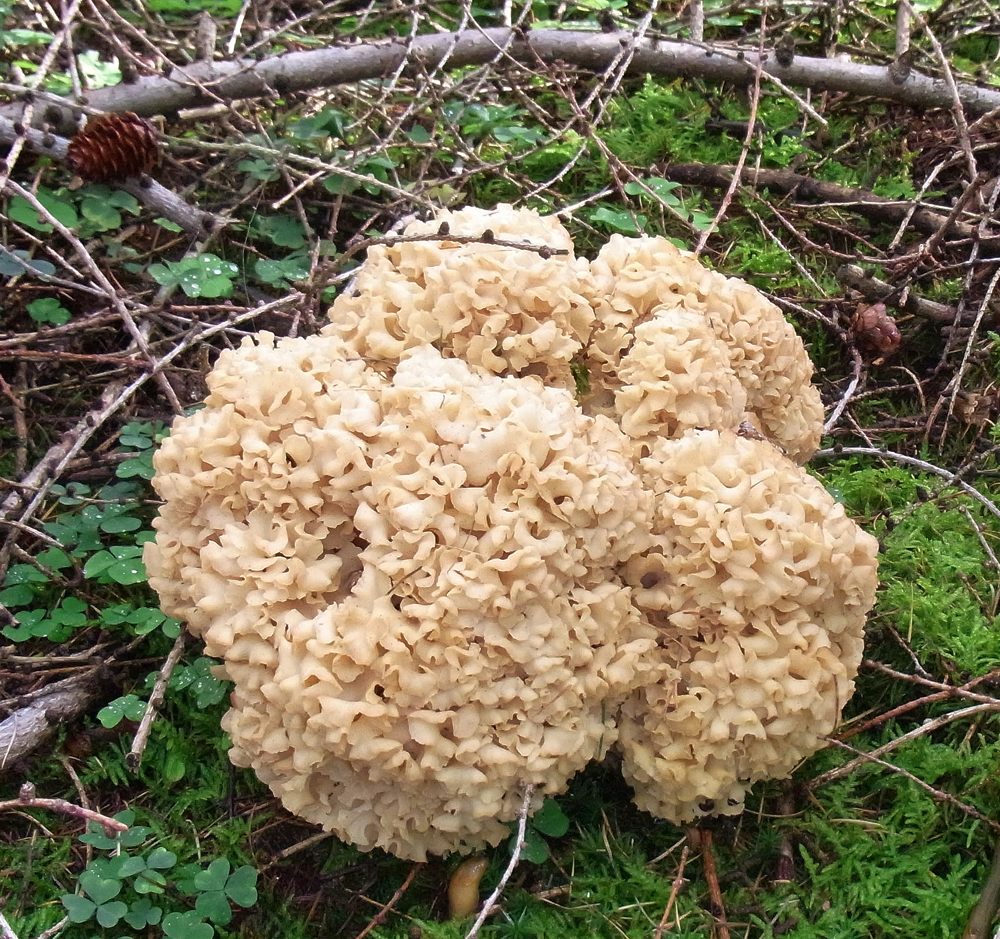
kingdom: Fungi
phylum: Basidiomycota
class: Agaricomycetes
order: Polyporales
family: Sparassidaceae
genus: Sparassis
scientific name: Sparassis crispa
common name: Brain fungus
